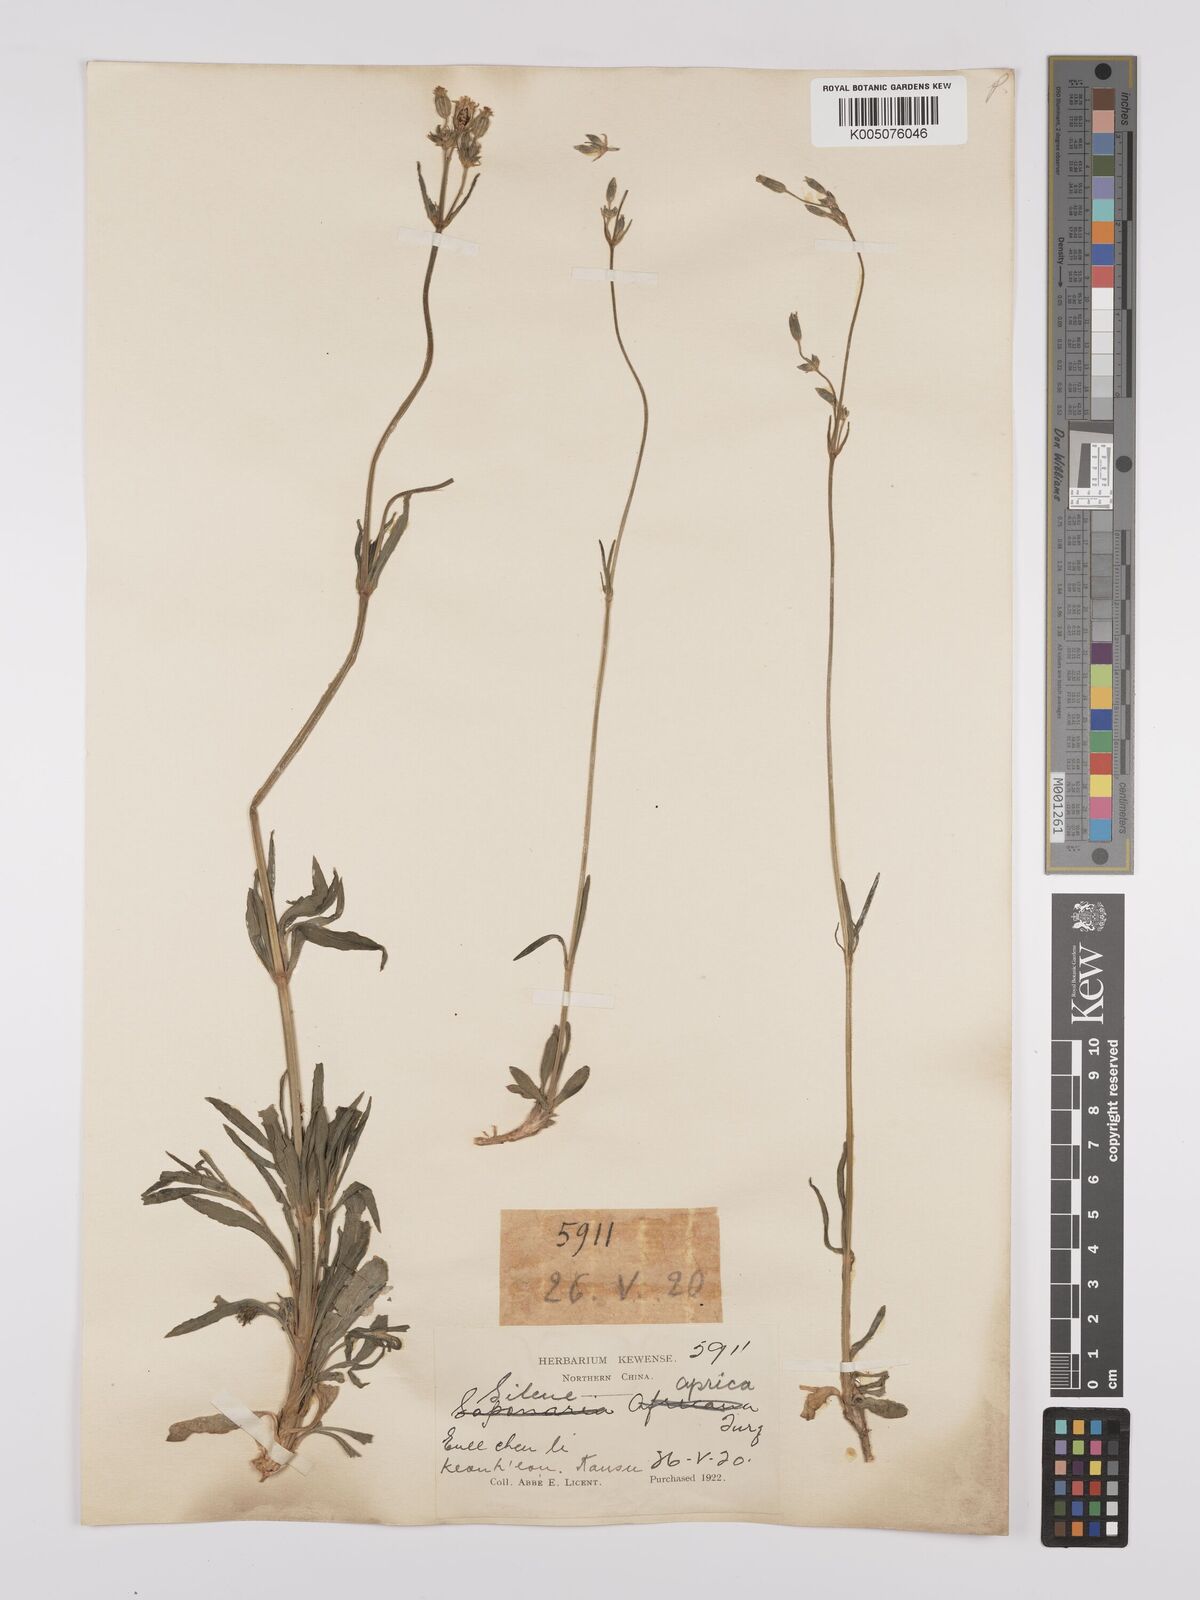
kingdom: Plantae
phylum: Tracheophyta
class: Magnoliopsida
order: Caryophyllales
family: Caryophyllaceae
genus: Silene
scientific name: Silene aprica
